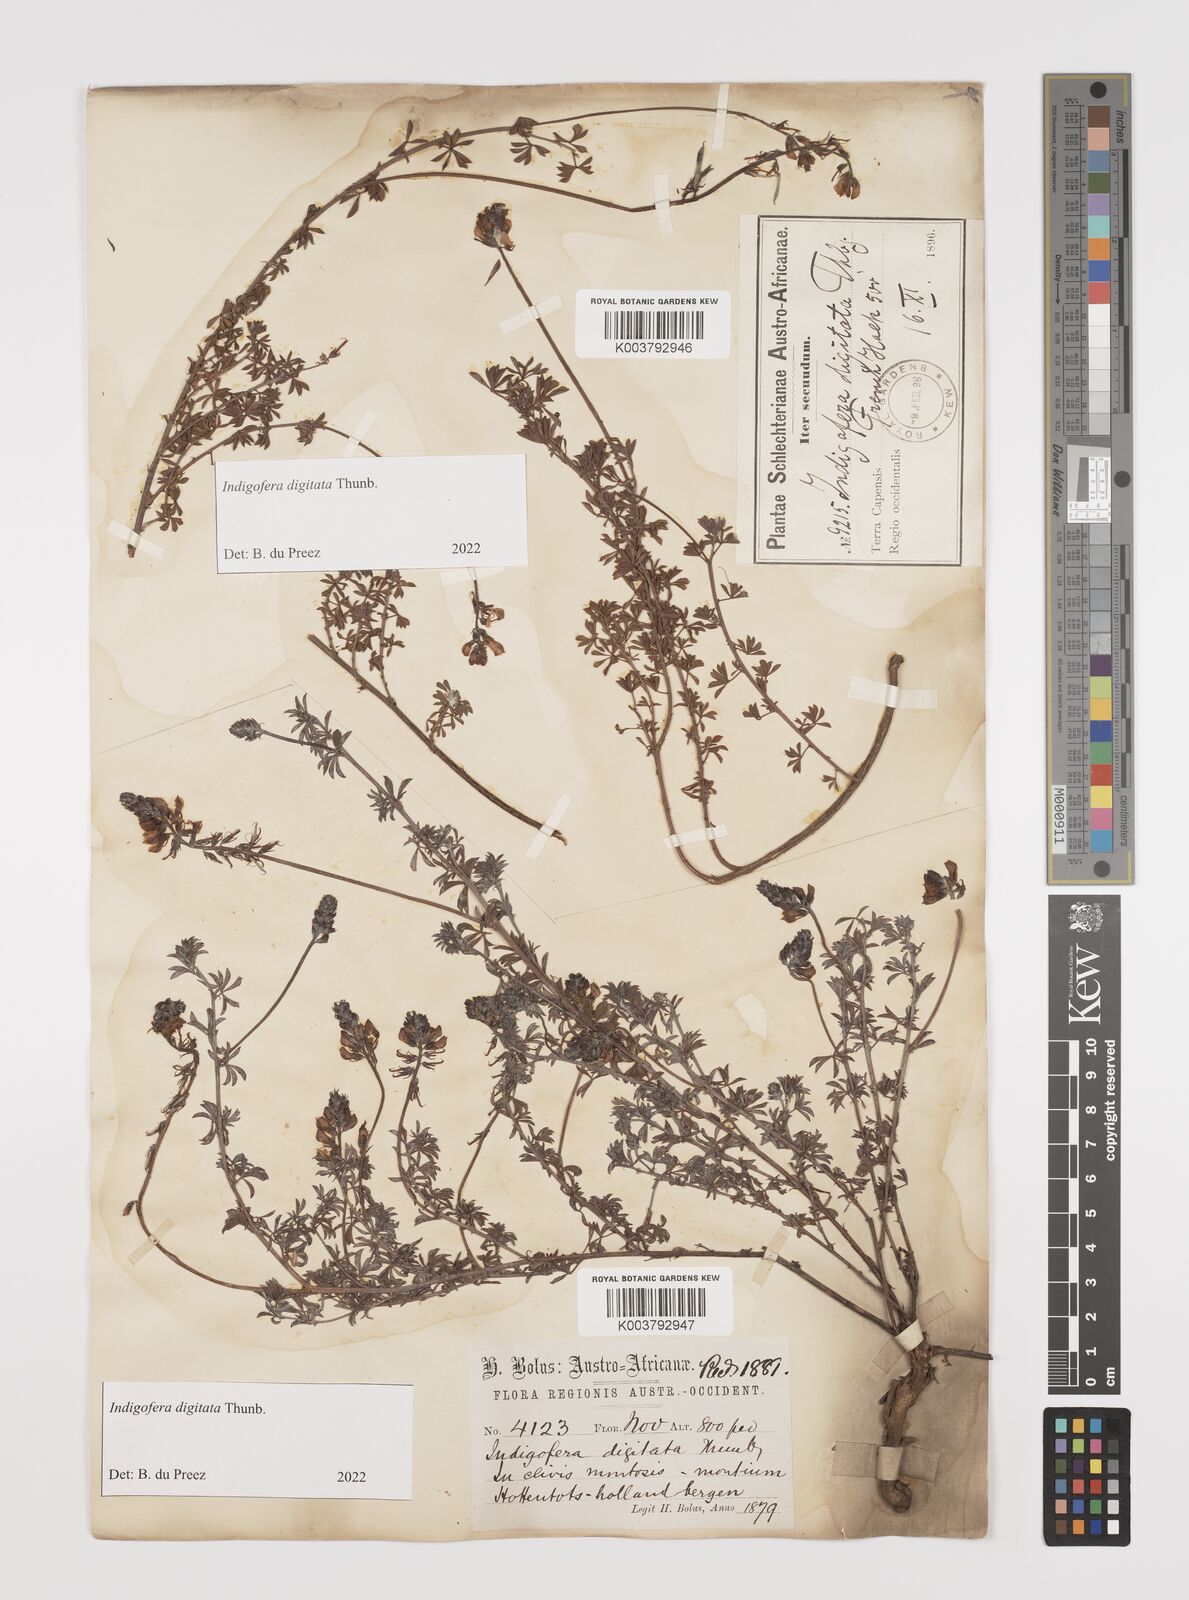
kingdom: Plantae
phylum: Tracheophyta
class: Magnoliopsida
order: Fabales
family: Fabaceae
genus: Indigofera
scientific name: Indigofera
